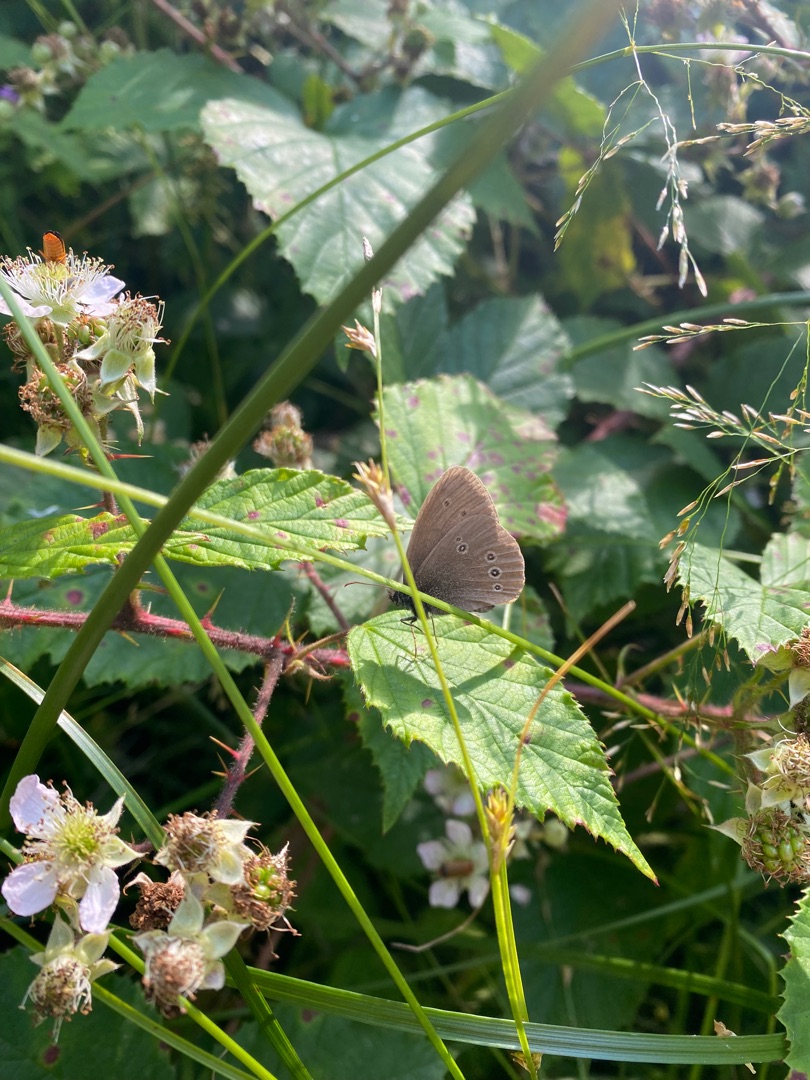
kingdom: Animalia
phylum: Arthropoda
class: Insecta
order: Lepidoptera
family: Nymphalidae
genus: Aphantopus
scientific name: Aphantopus hyperantus
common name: Engrandøje
